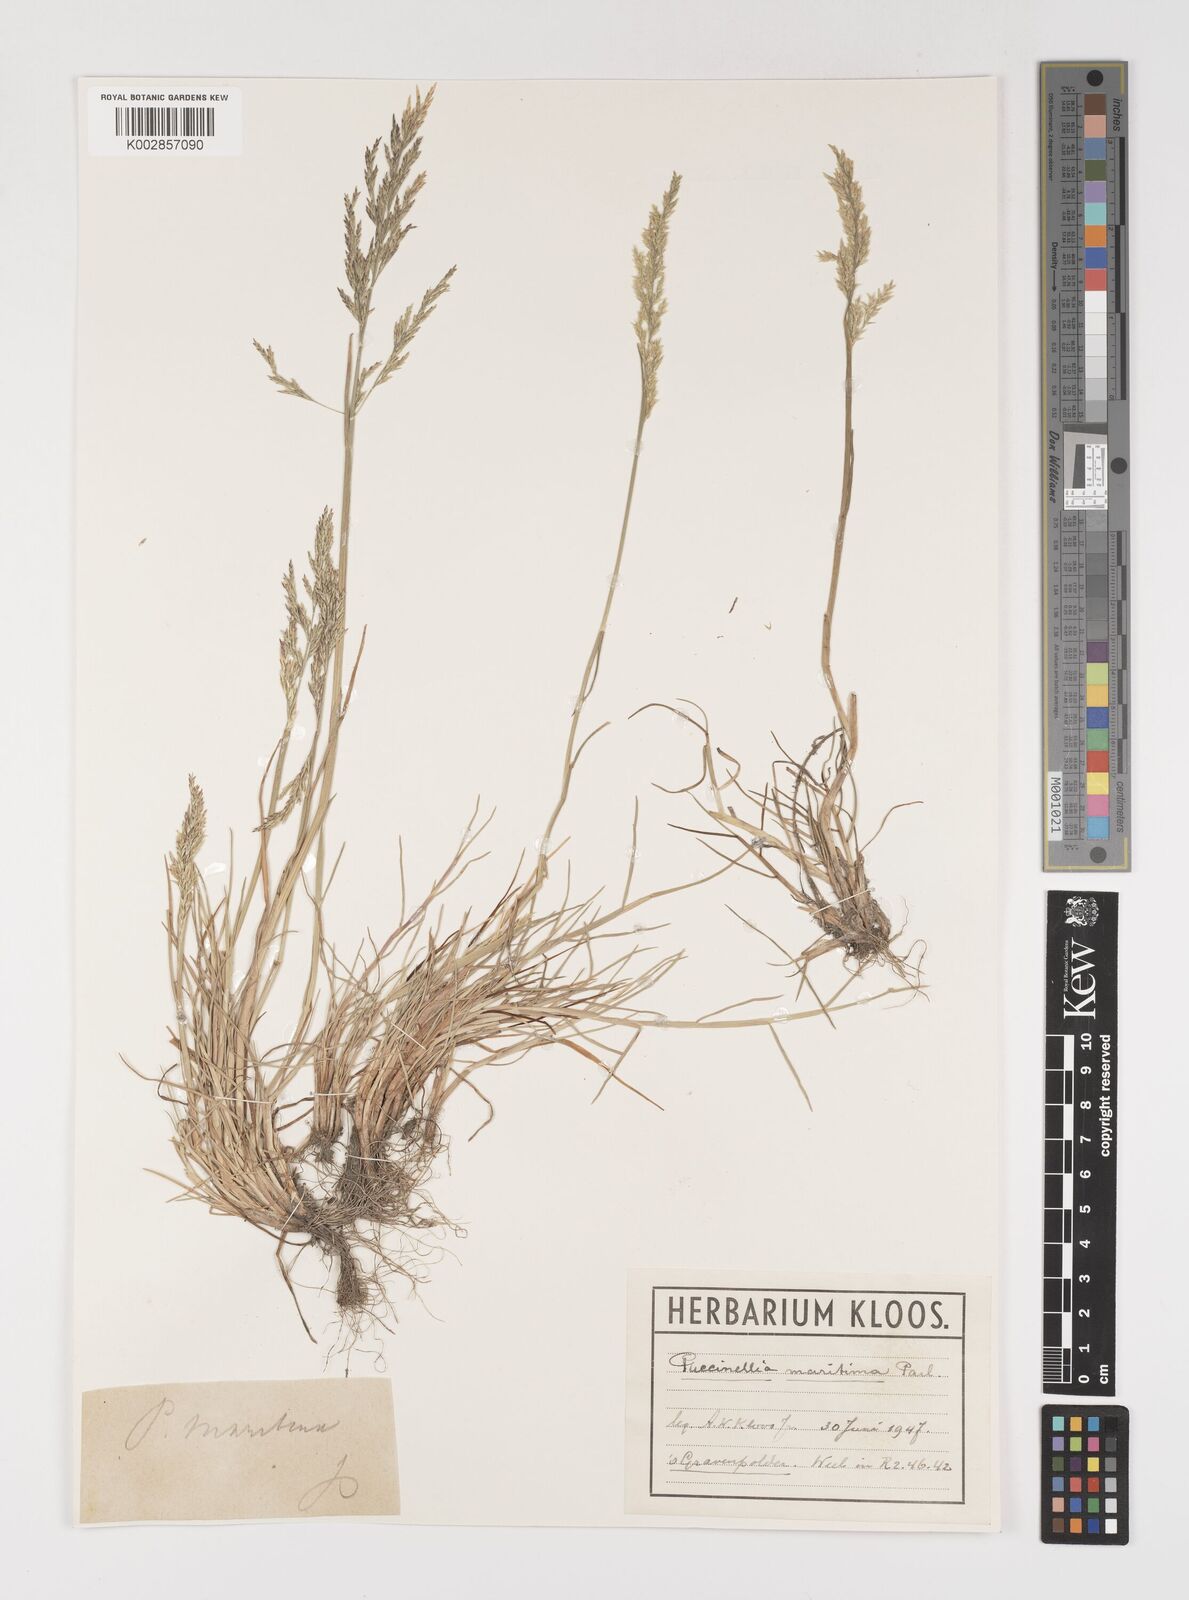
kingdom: Plantae
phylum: Tracheophyta
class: Liliopsida
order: Poales
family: Poaceae
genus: Puccinellia
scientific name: Puccinellia maritima
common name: Common saltmarsh grass
